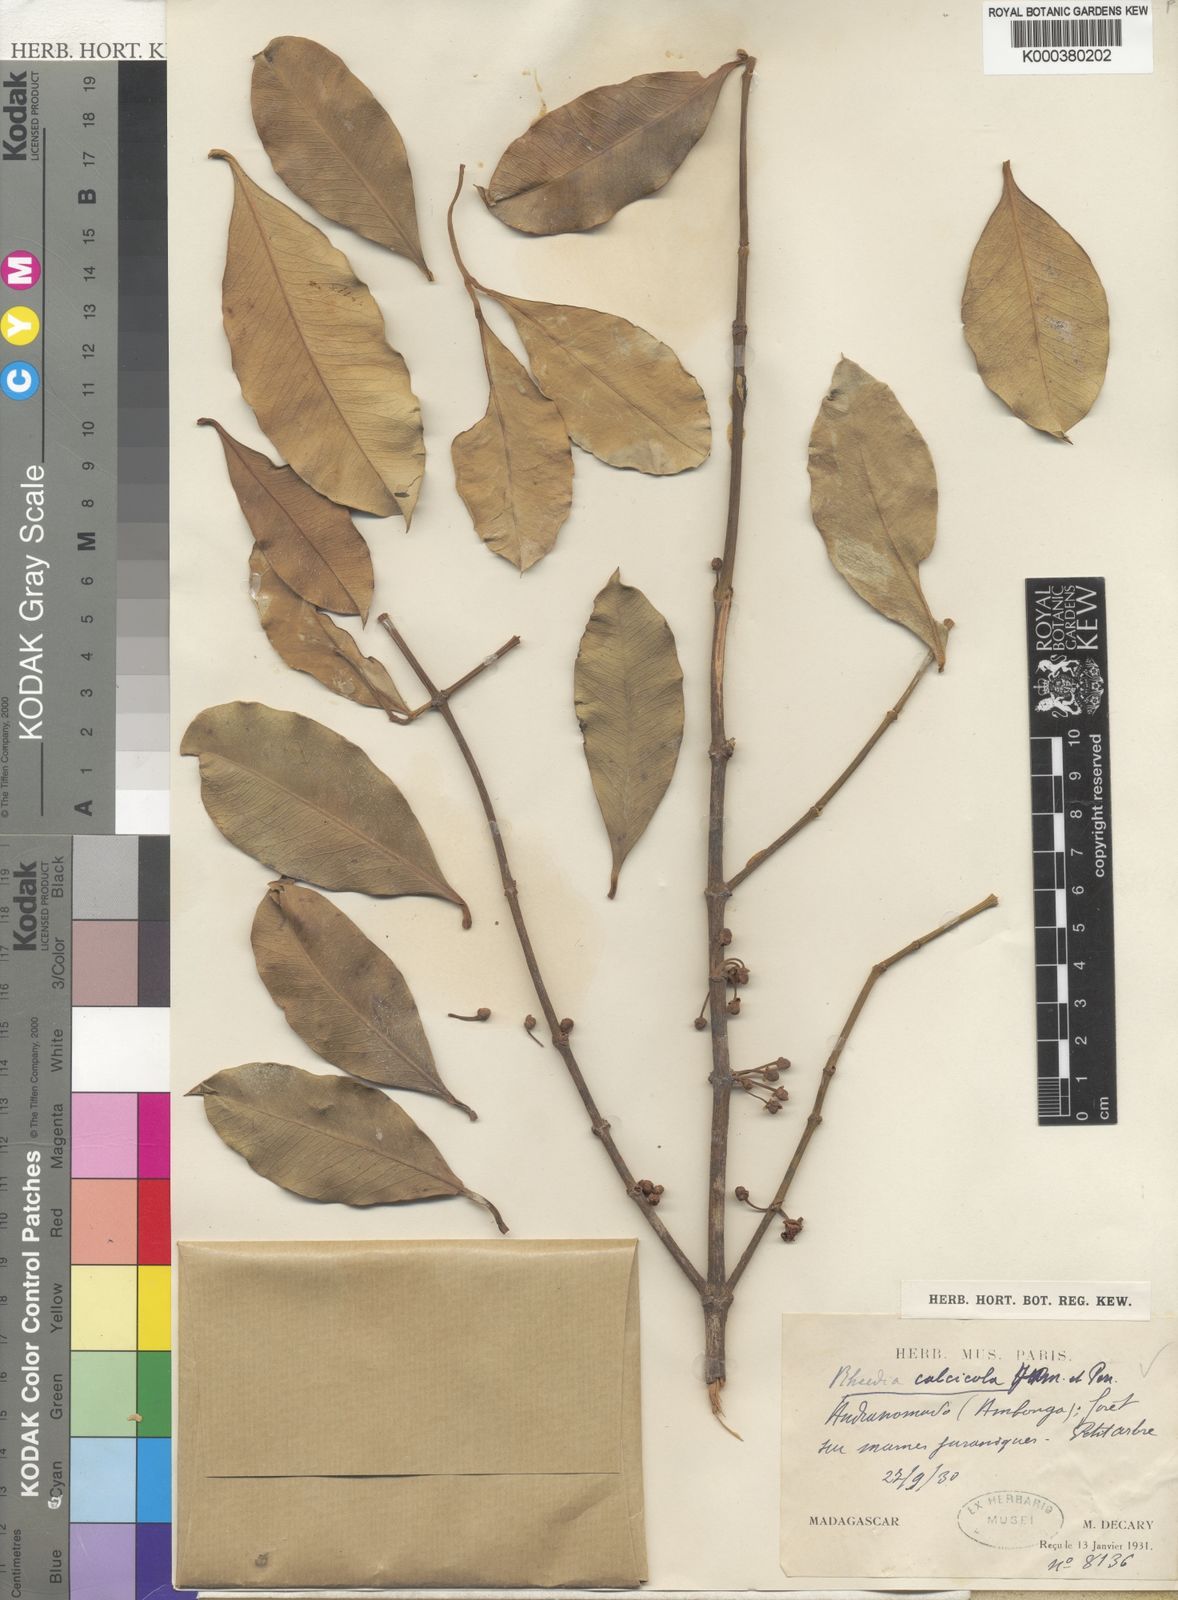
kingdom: Plantae
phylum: Tracheophyta
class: Magnoliopsida
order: Malpighiales
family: Clusiaceae
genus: Garcinia
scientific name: Garcinia calcicola
